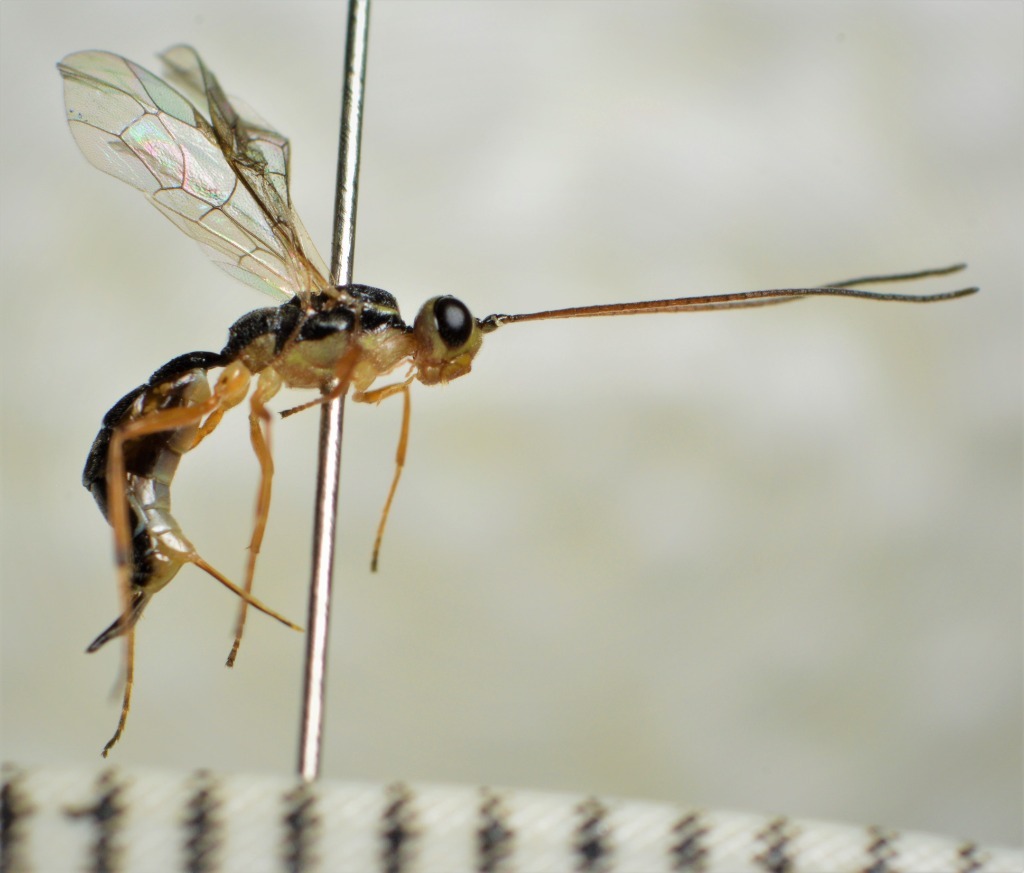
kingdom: Animalia
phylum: Arthropoda
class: Insecta
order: Hymenoptera
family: Ichneumonidae
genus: Oedemopsis
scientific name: Oedemopsis scabricula
